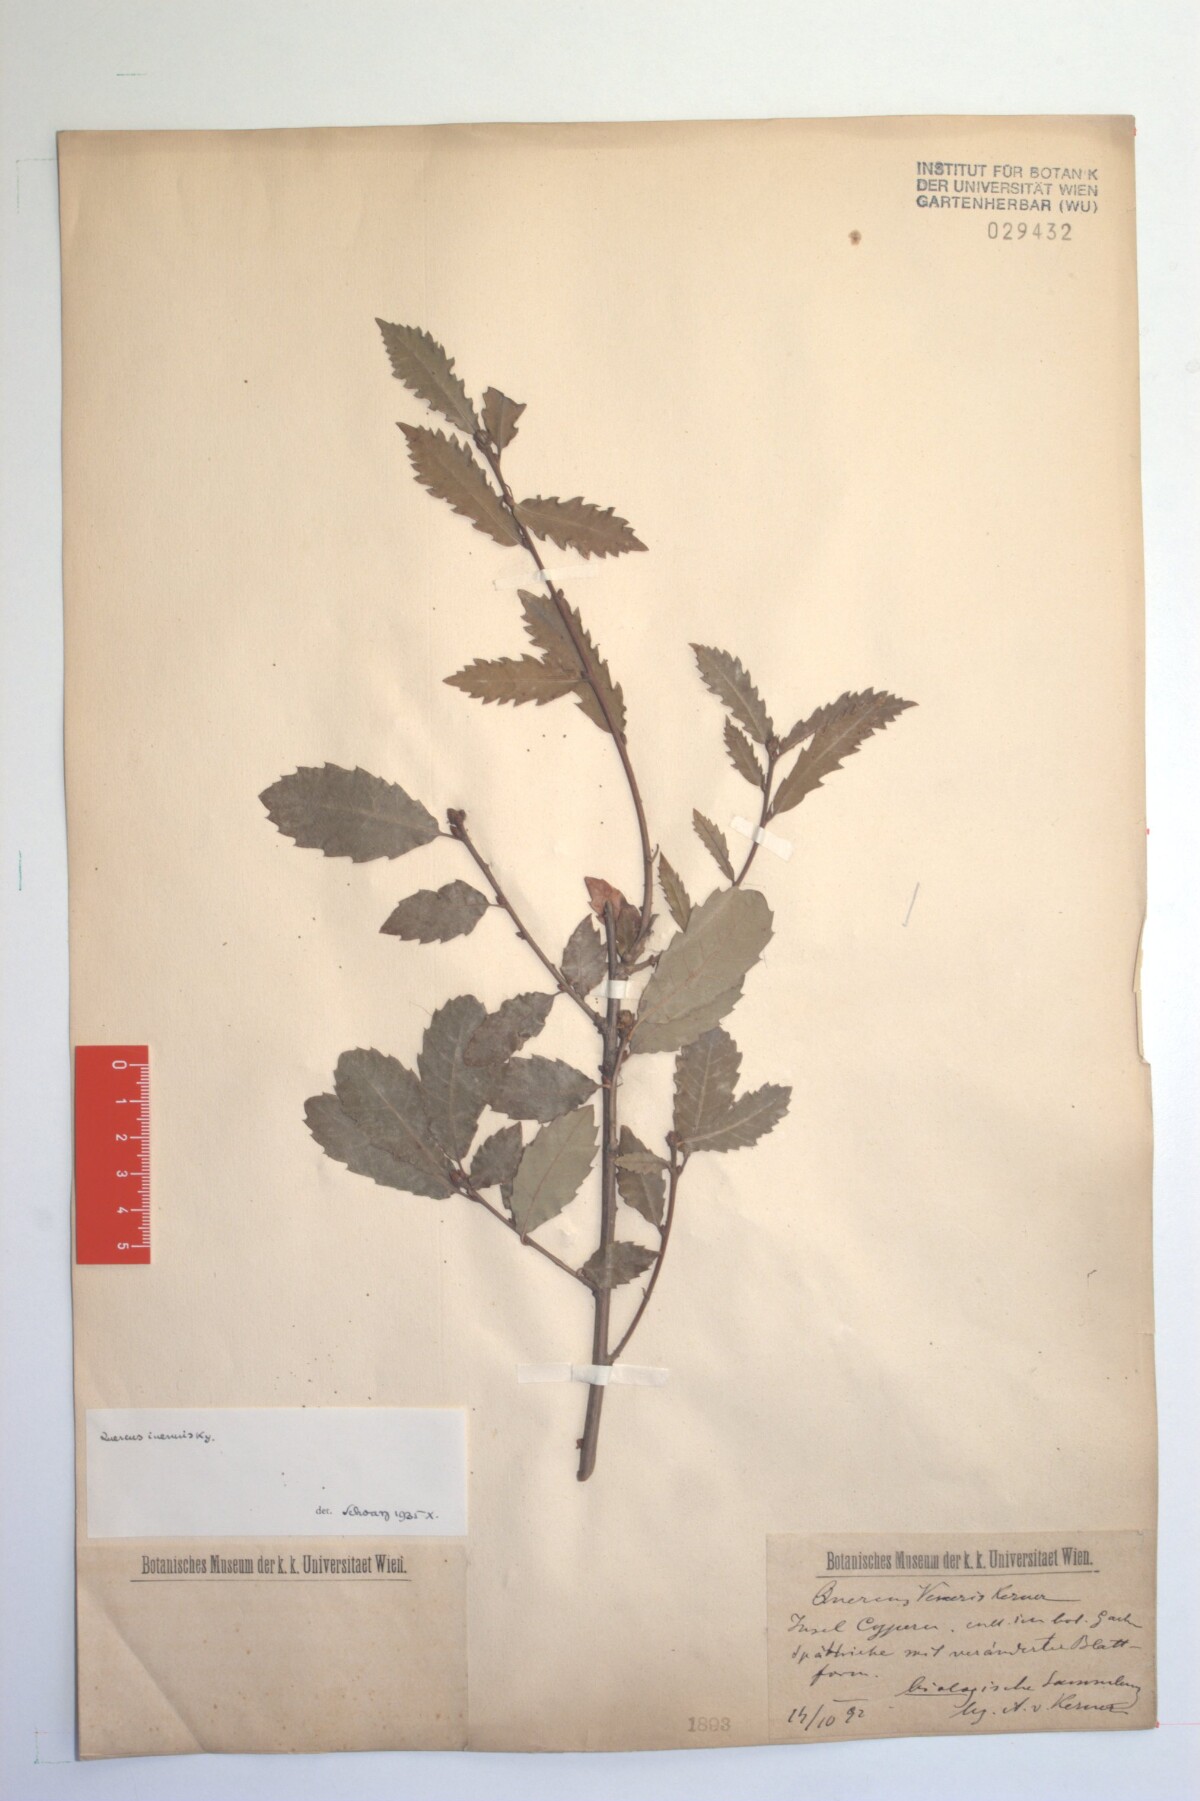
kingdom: Plantae
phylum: Tracheophyta
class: Magnoliopsida
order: Fagales
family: Fagaceae
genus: Quercus
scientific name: Quercus infectoria
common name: Aleppo oak
